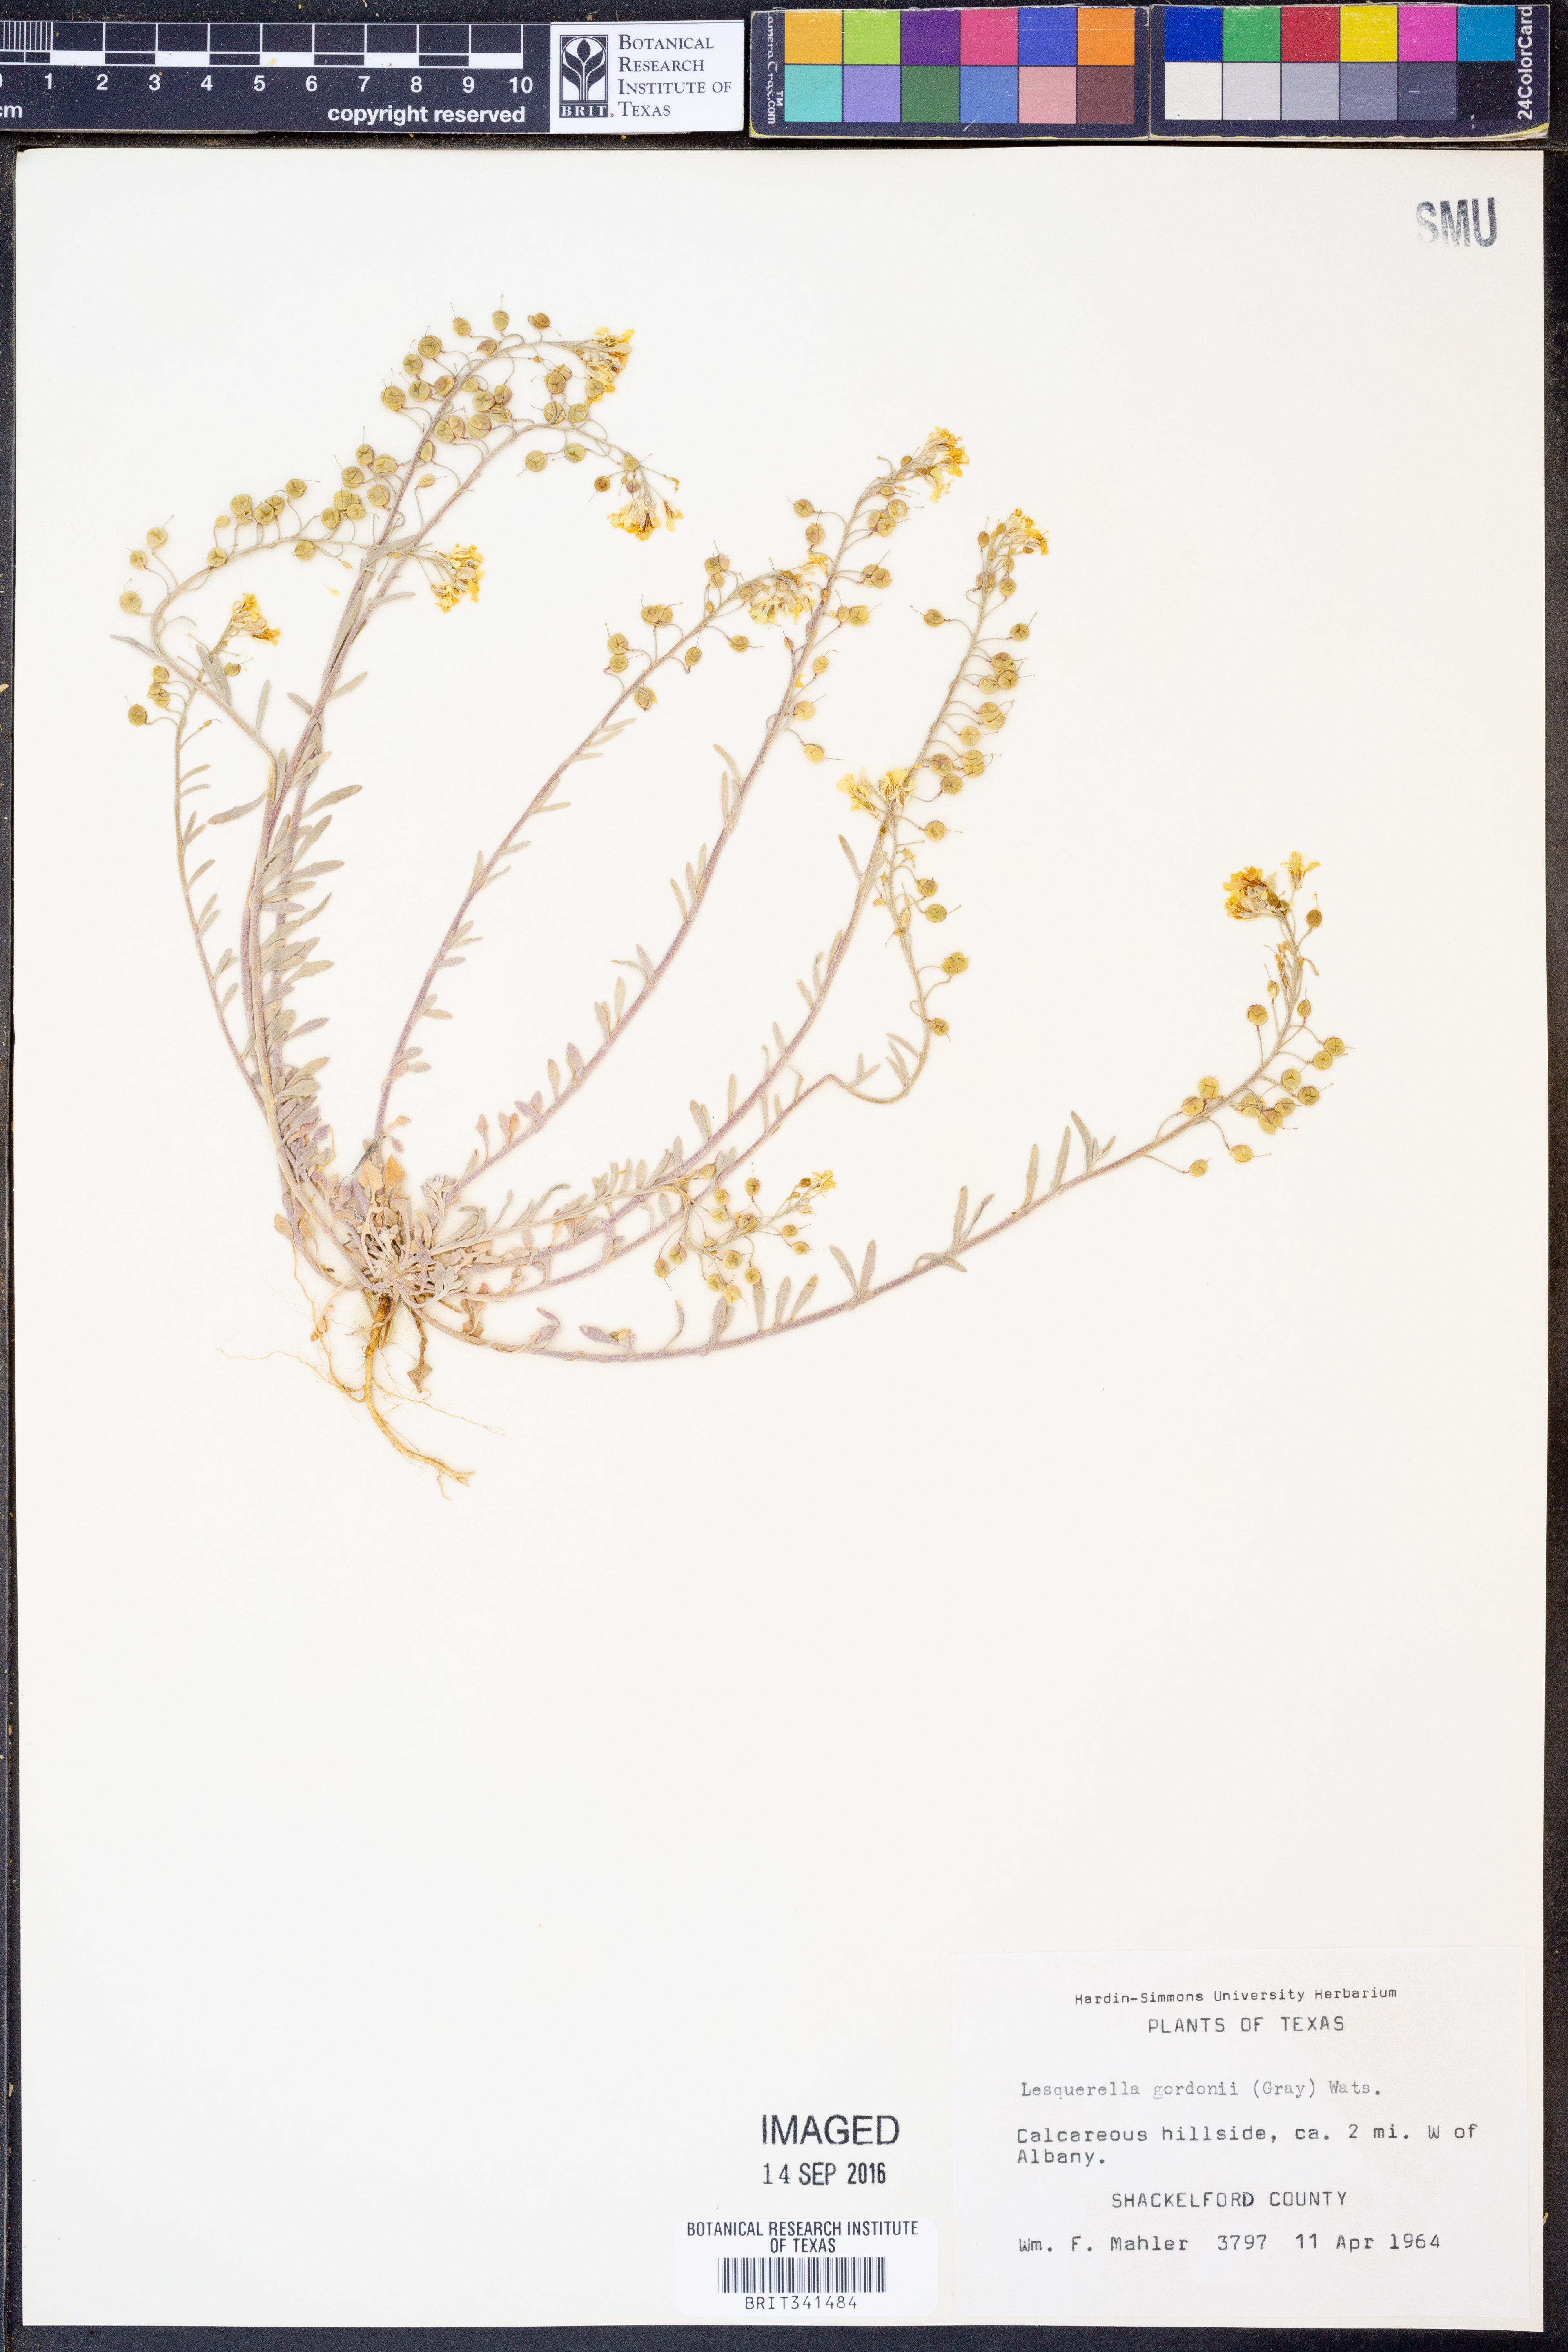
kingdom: Plantae
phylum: Tracheophyta
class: Magnoliopsida
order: Brassicales
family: Brassicaceae
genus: Physaria
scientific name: Physaria gordonii
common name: Gordon's bladderpod
